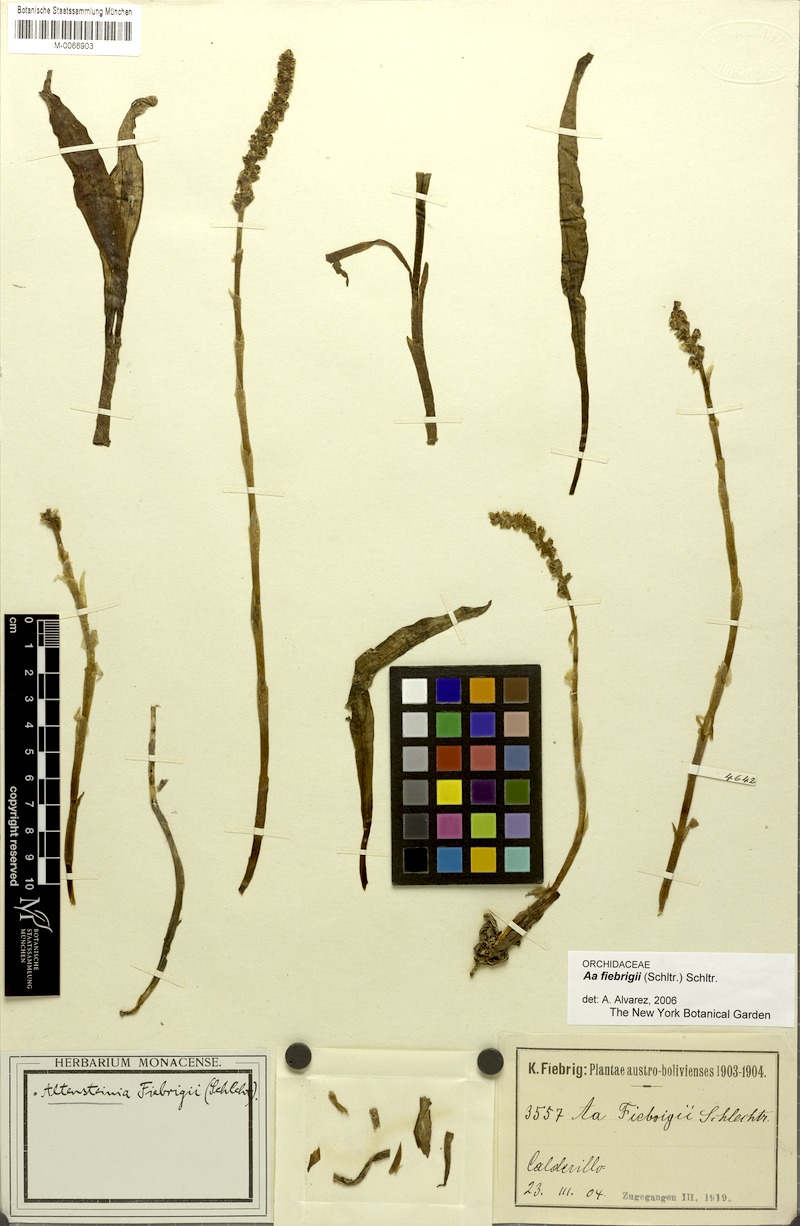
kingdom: Plantae
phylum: Tracheophyta
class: Liliopsida
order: Asparagales
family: Orchidaceae
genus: Aa
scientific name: Aa fiebrigii
